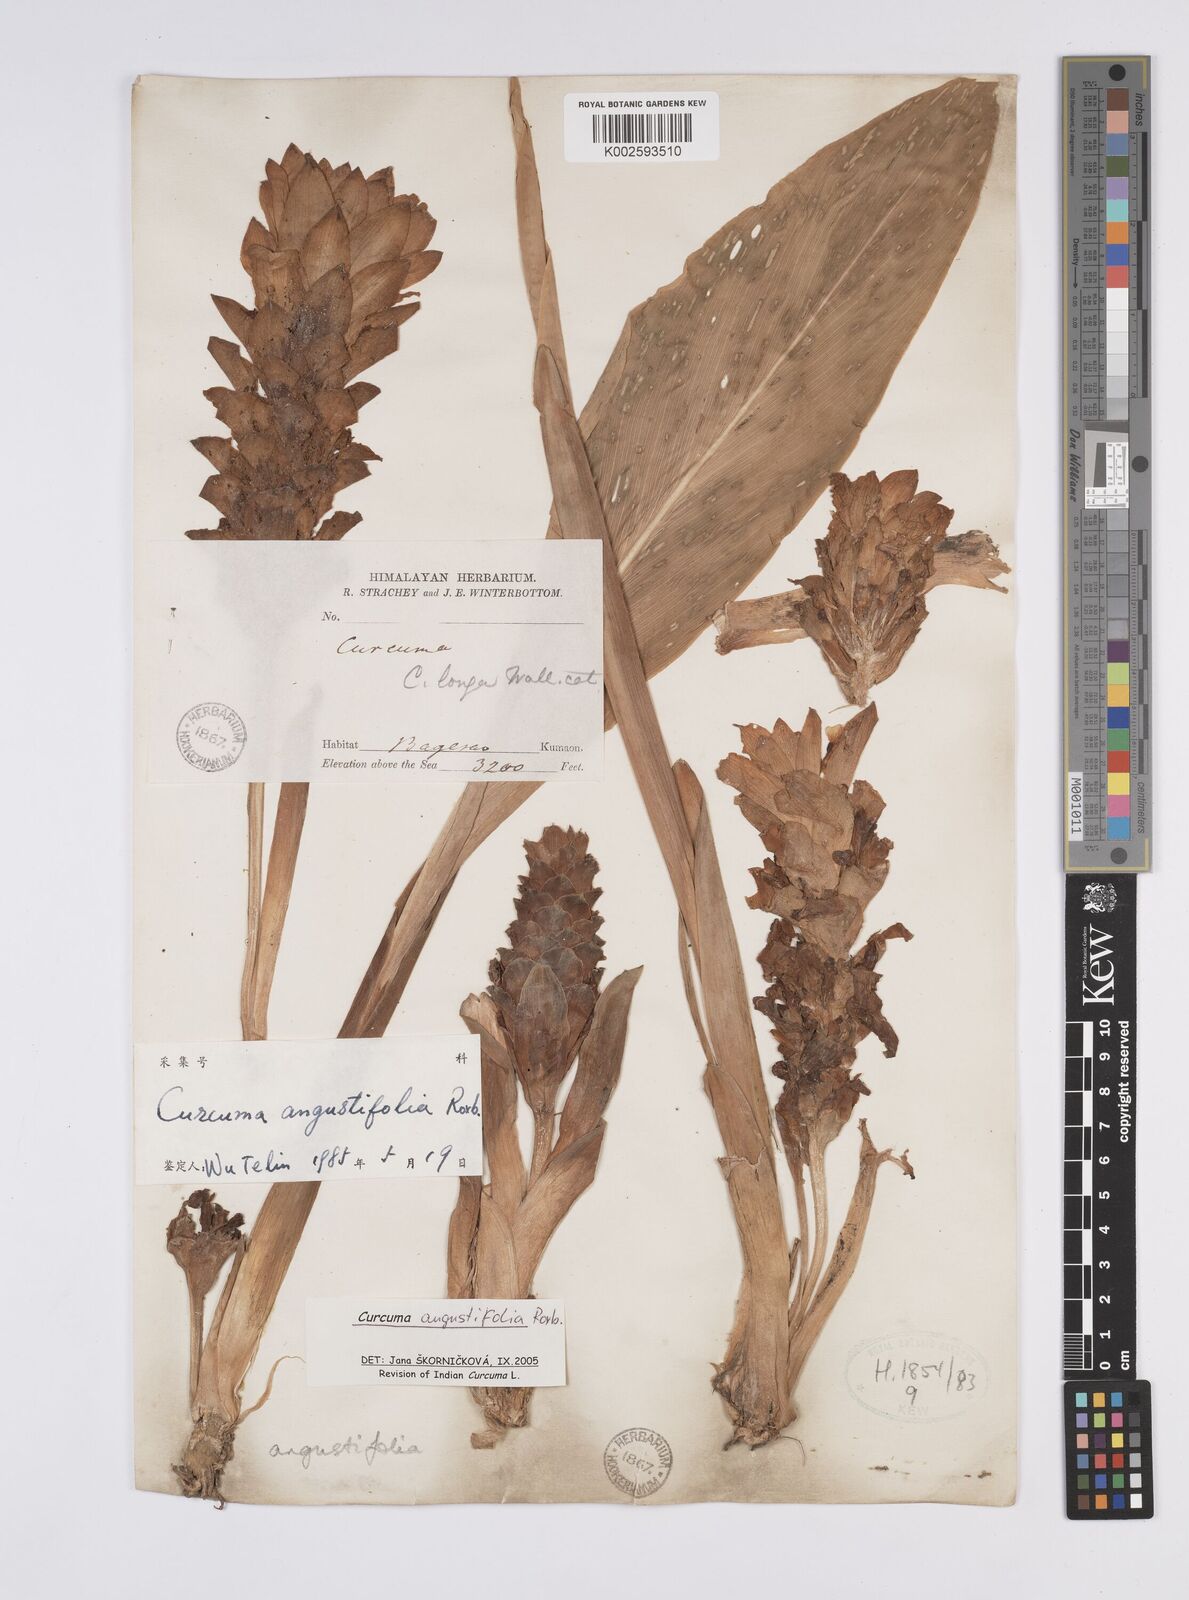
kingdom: Plantae
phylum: Tracheophyta
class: Liliopsida
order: Zingiberales
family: Zingiberaceae
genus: Curcuma
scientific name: Curcuma angustifolia
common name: East indian arrowroot
